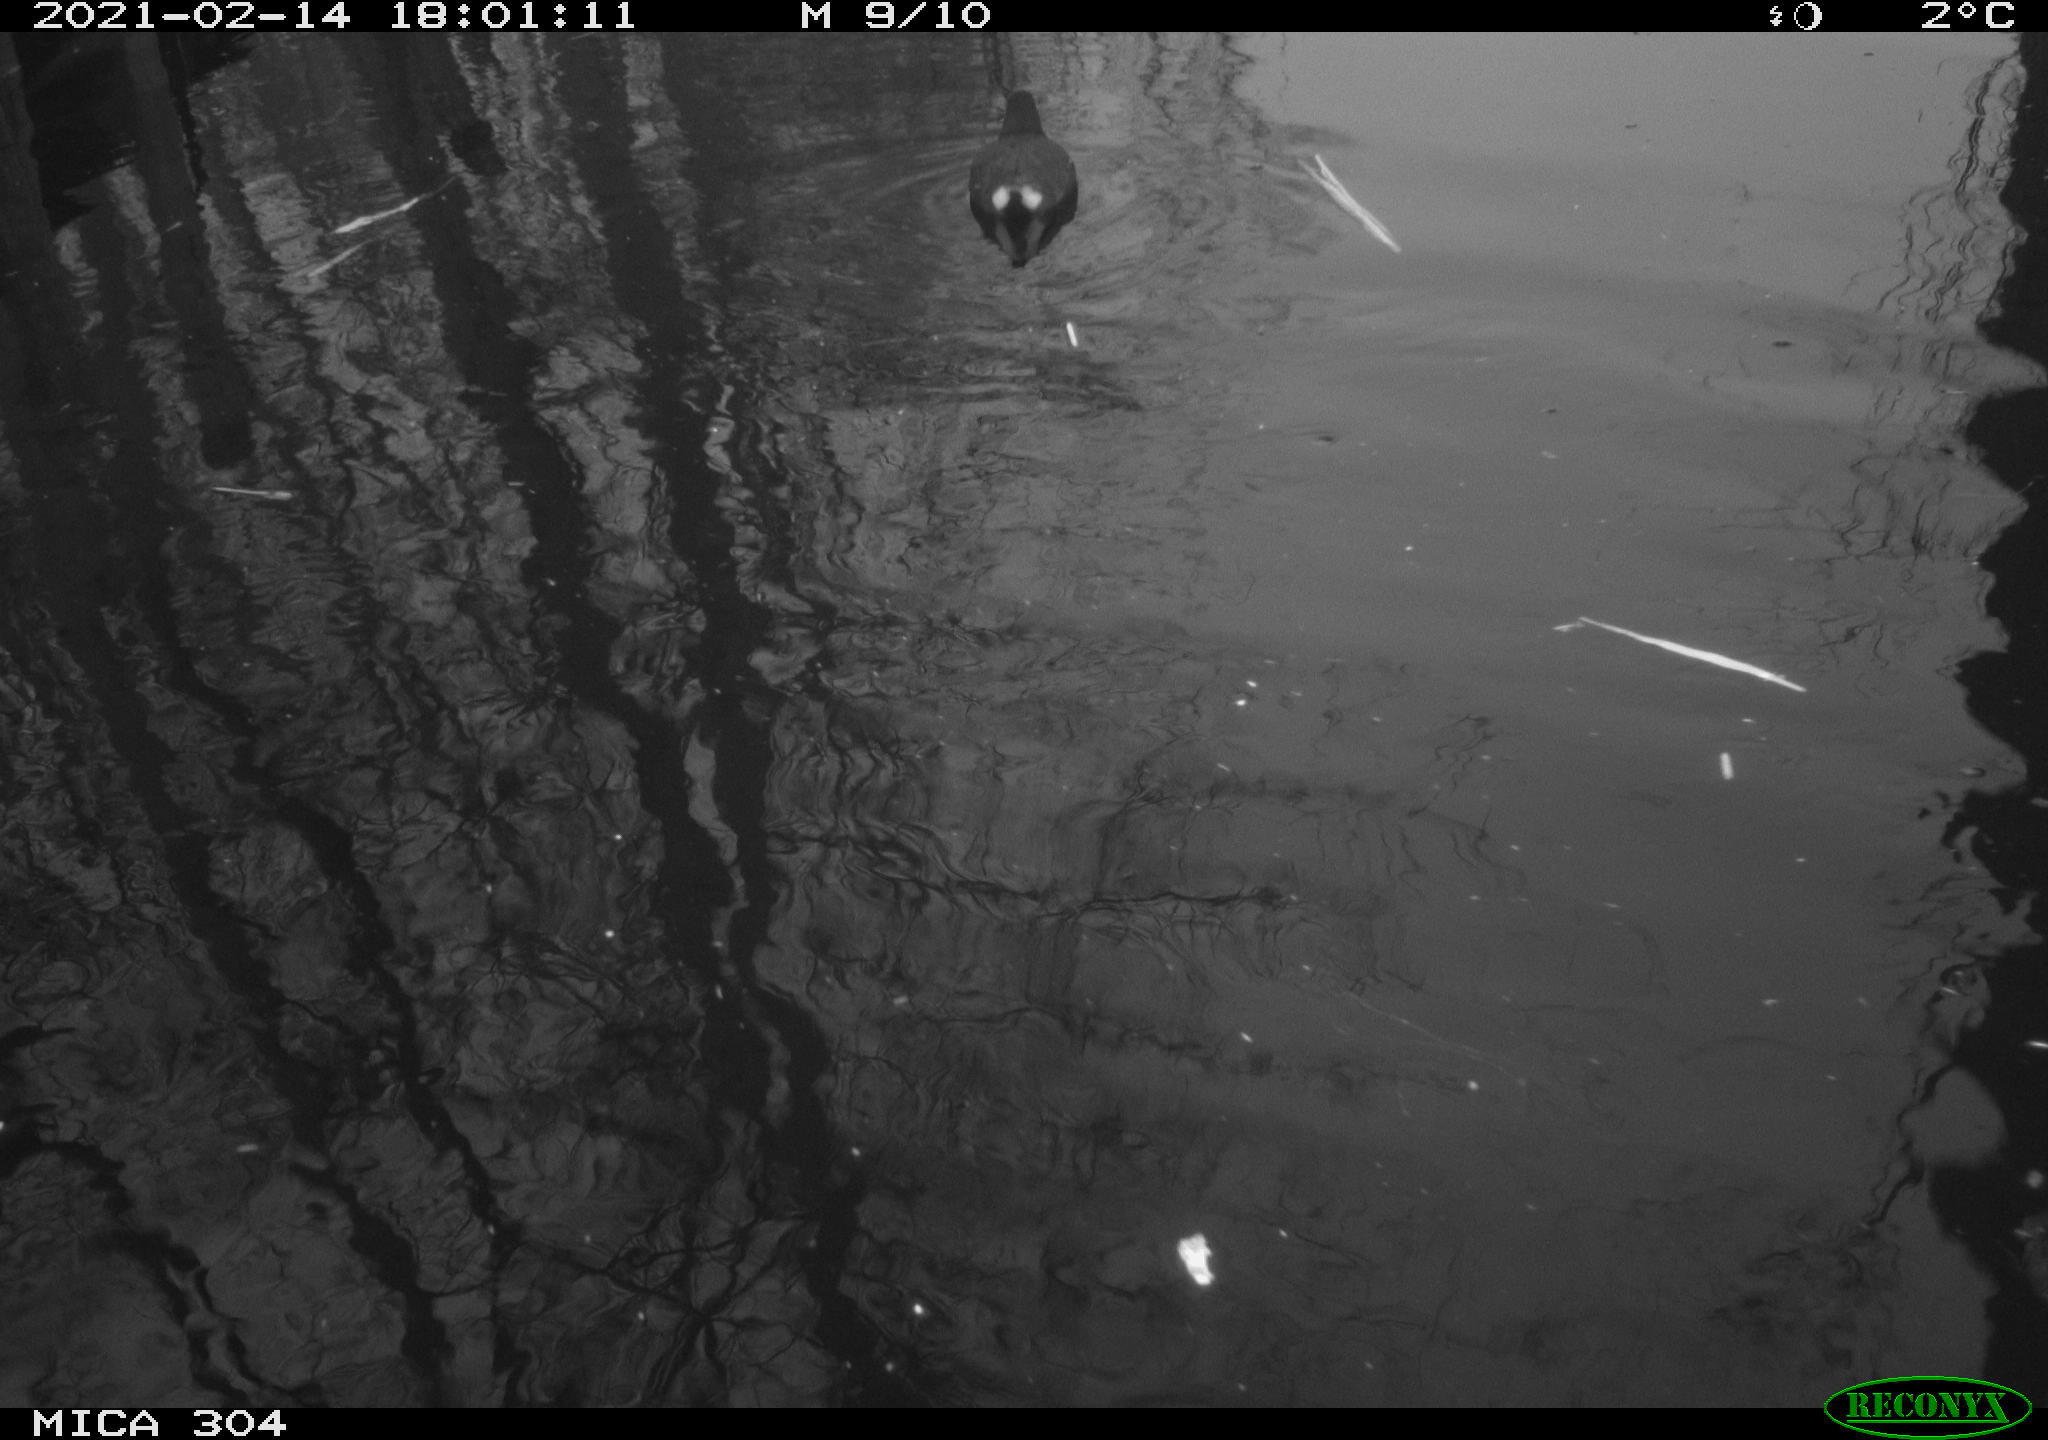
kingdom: Animalia
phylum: Chordata
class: Aves
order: Gruiformes
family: Rallidae
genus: Gallinula
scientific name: Gallinula chloropus
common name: Common moorhen
